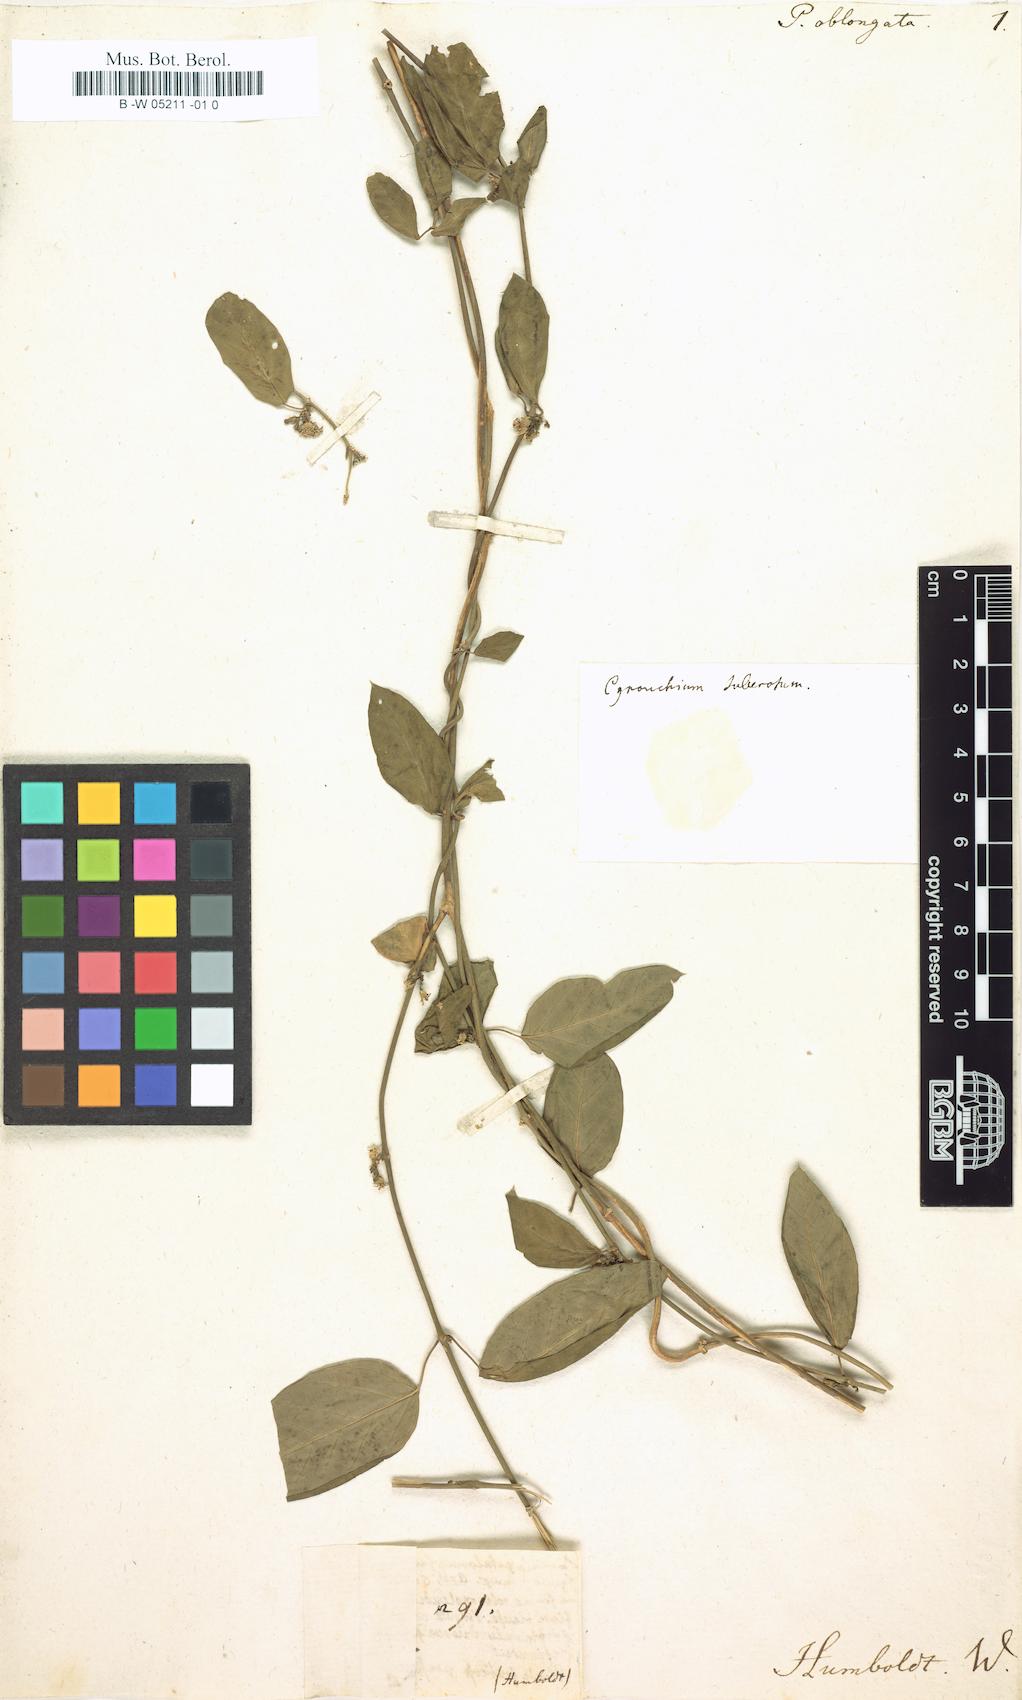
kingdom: Plantae
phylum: Tracheophyta
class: Magnoliopsida
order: Gentianales
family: Apocynaceae
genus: Periploca
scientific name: Periploca oblongata
